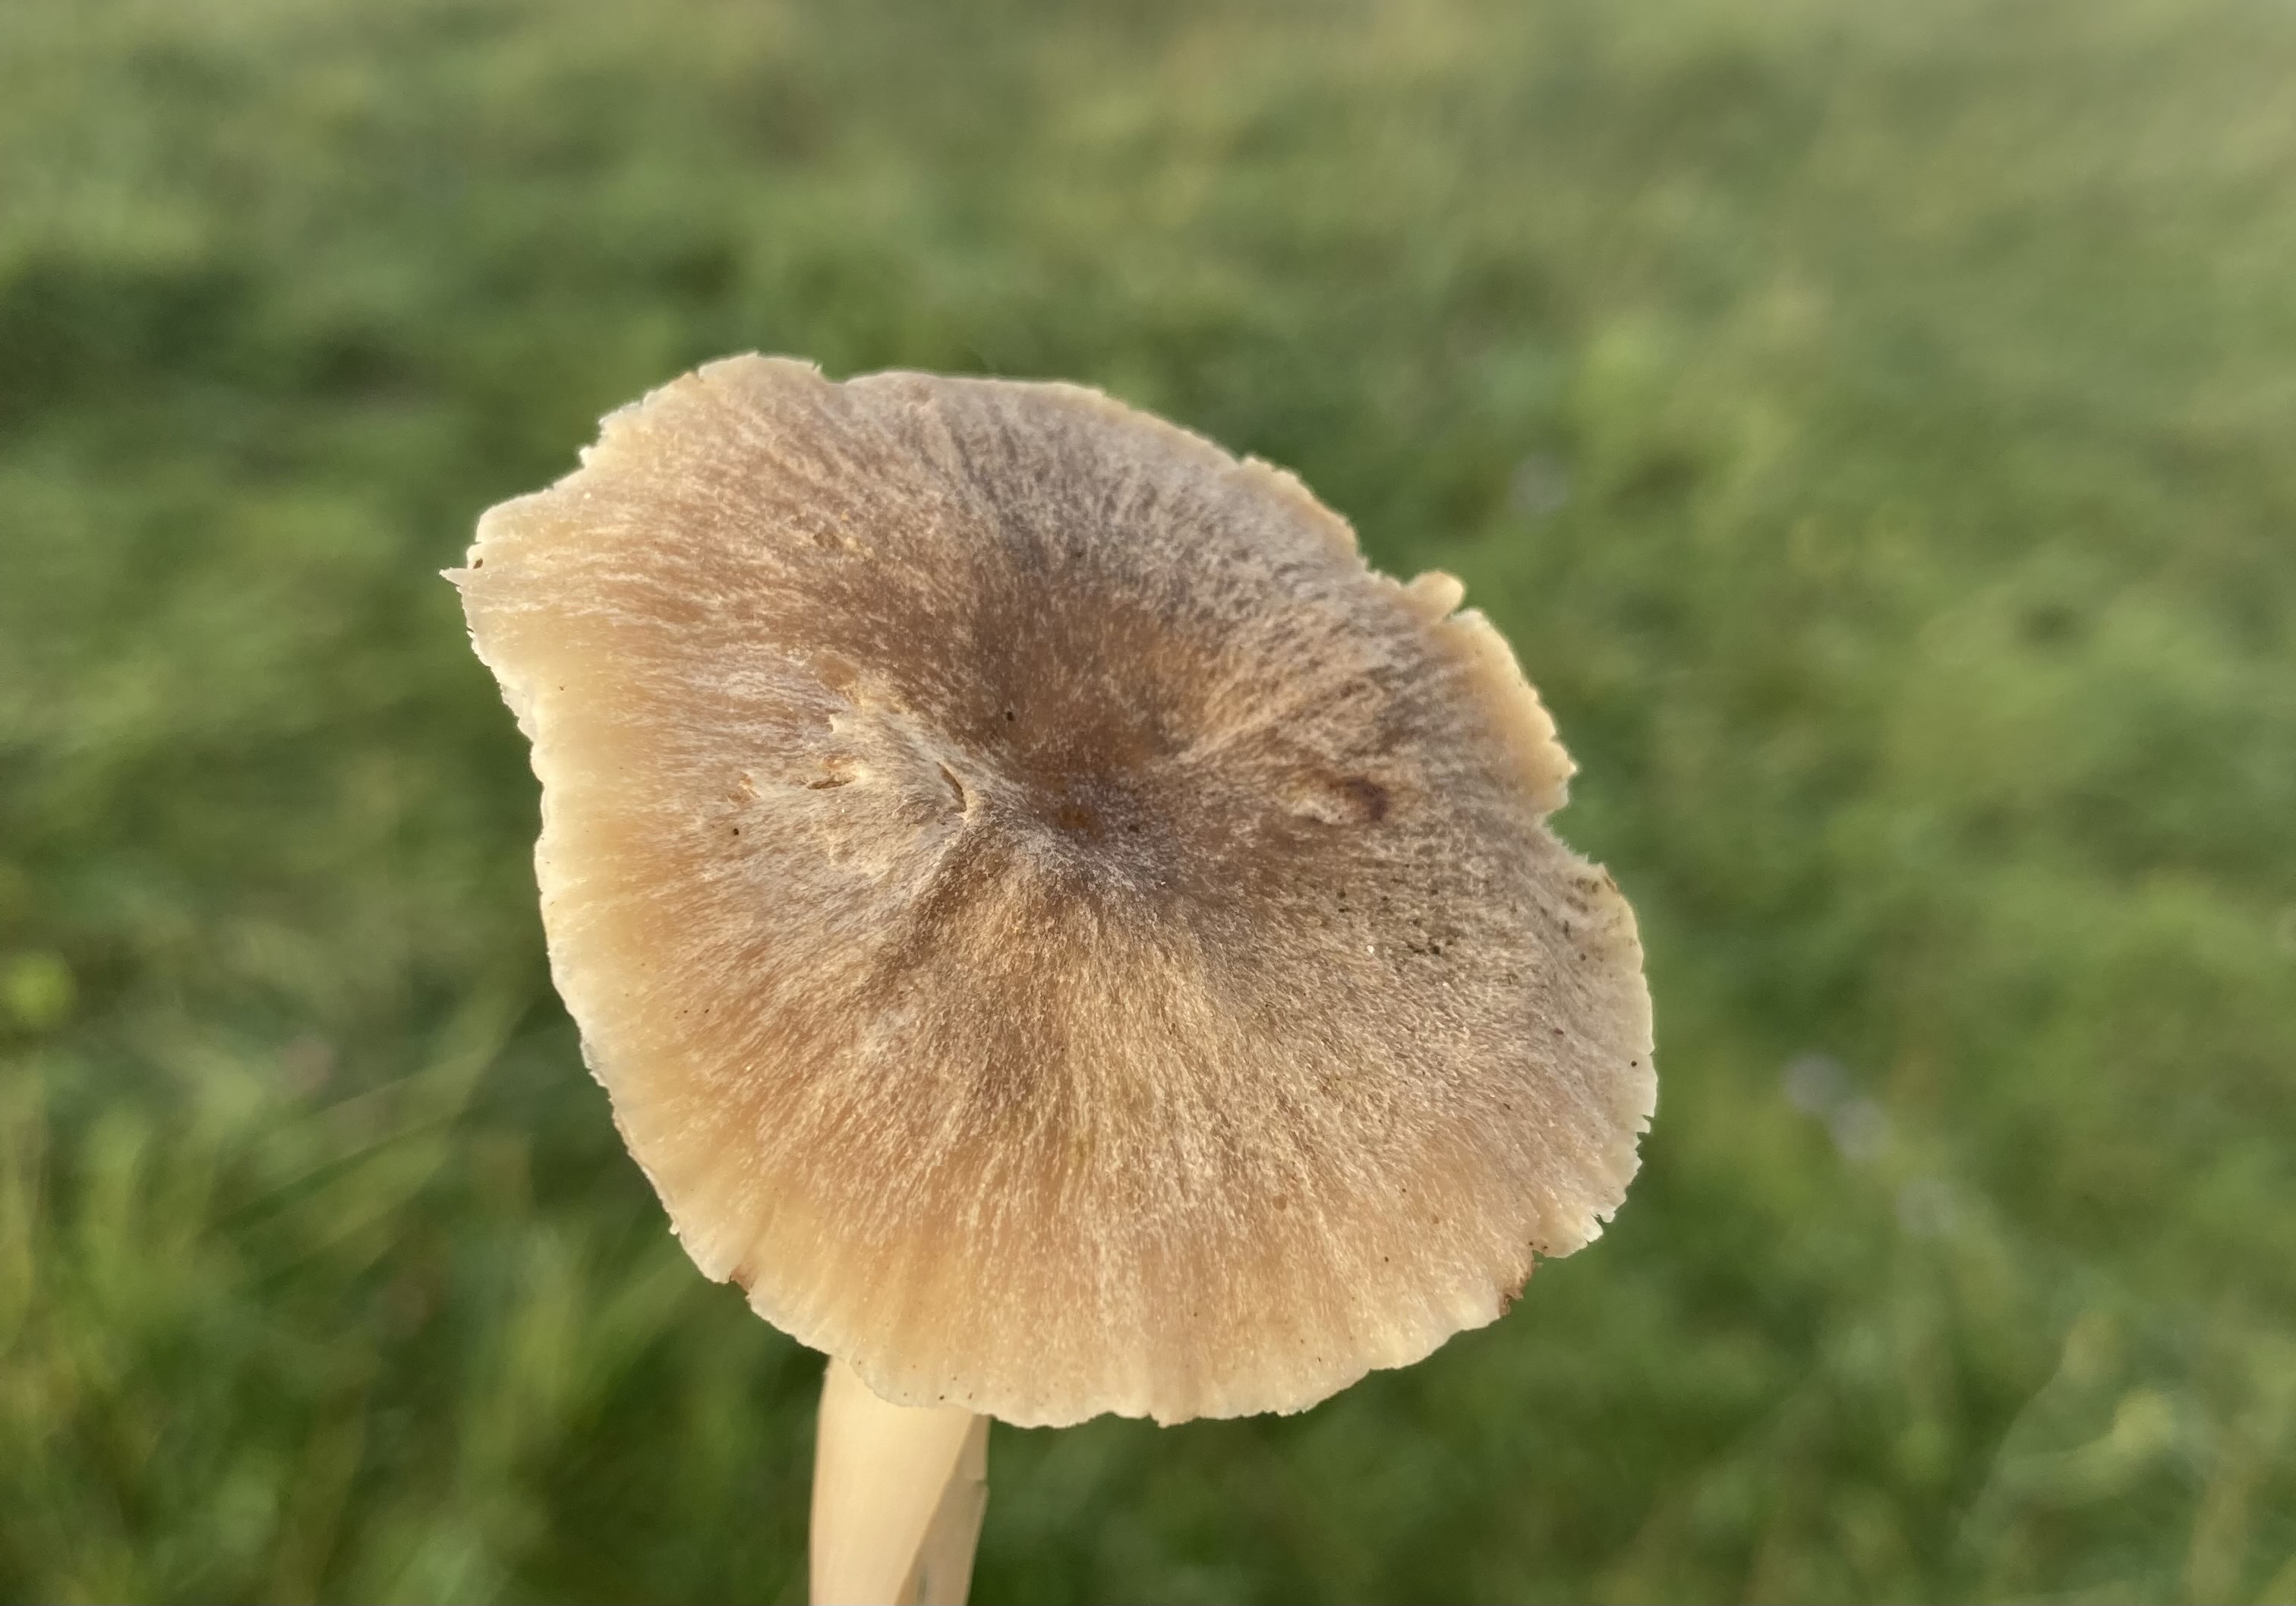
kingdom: Fungi
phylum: Basidiomycota
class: Agaricomycetes
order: Agaricales
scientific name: Agaricales
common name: champignonordenen
